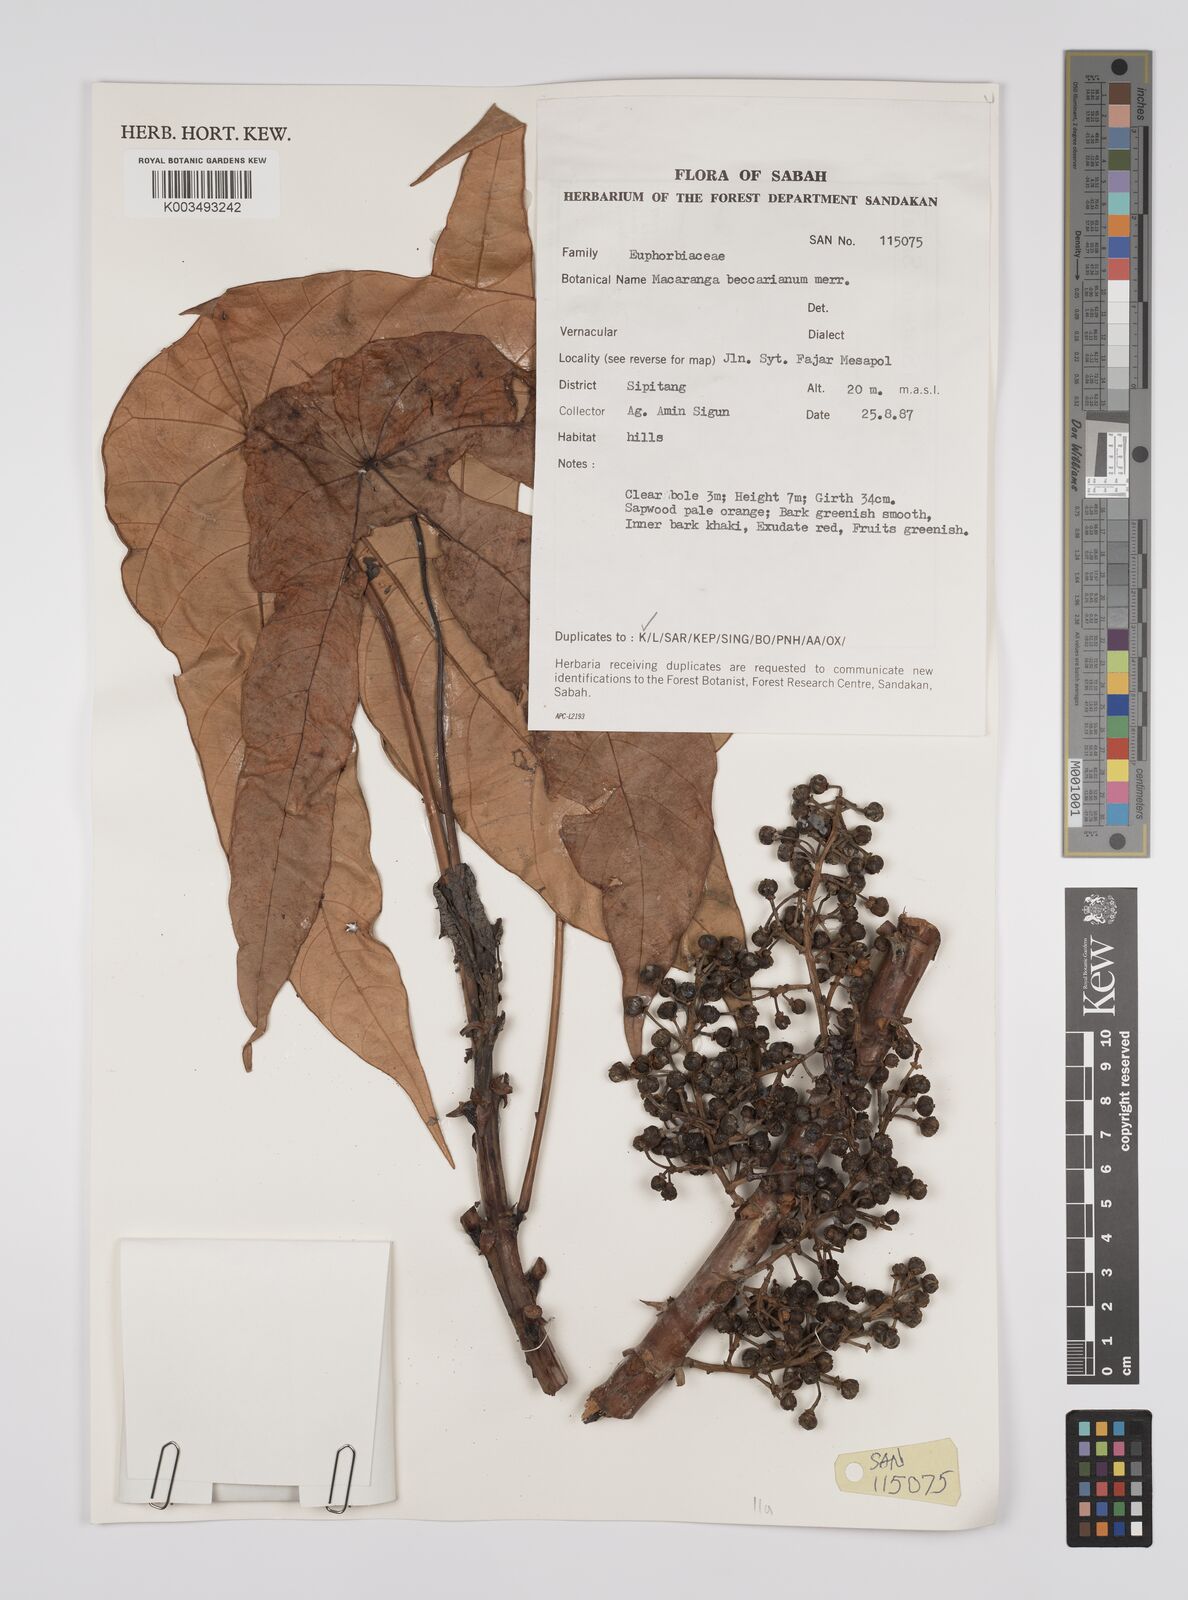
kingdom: Plantae
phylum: Tracheophyta
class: Magnoliopsida
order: Malpighiales
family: Euphorbiaceae
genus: Macaranga
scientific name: Macaranga beccariana
